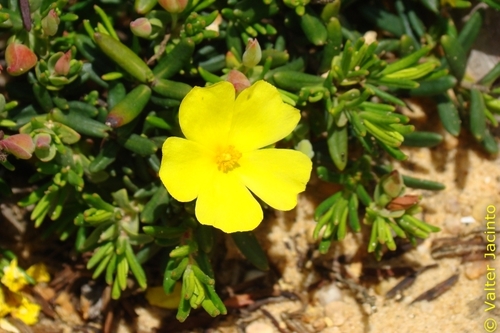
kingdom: Plantae
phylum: Tracheophyta
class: Magnoliopsida
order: Malvales
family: Cistaceae
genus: Helianthemum
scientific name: Helianthemum origanifolium
